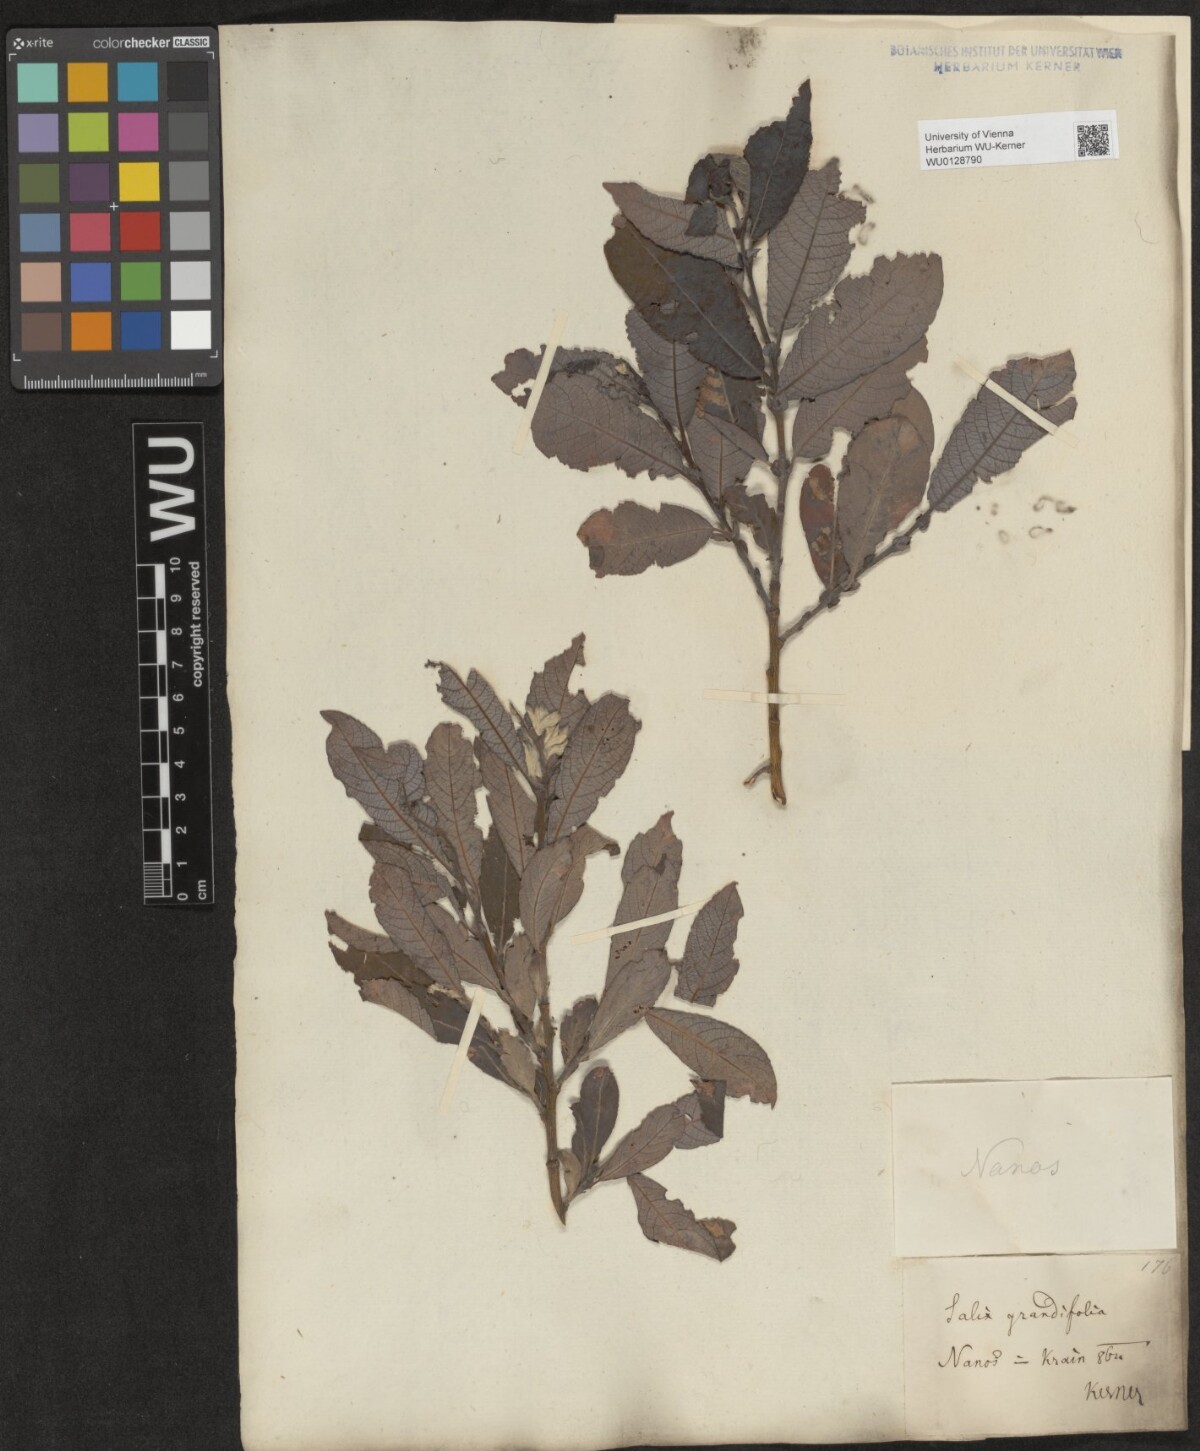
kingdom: Plantae
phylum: Tracheophyta
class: Magnoliopsida
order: Malpighiales
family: Salicaceae
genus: Salix
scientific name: Salix appendiculata
